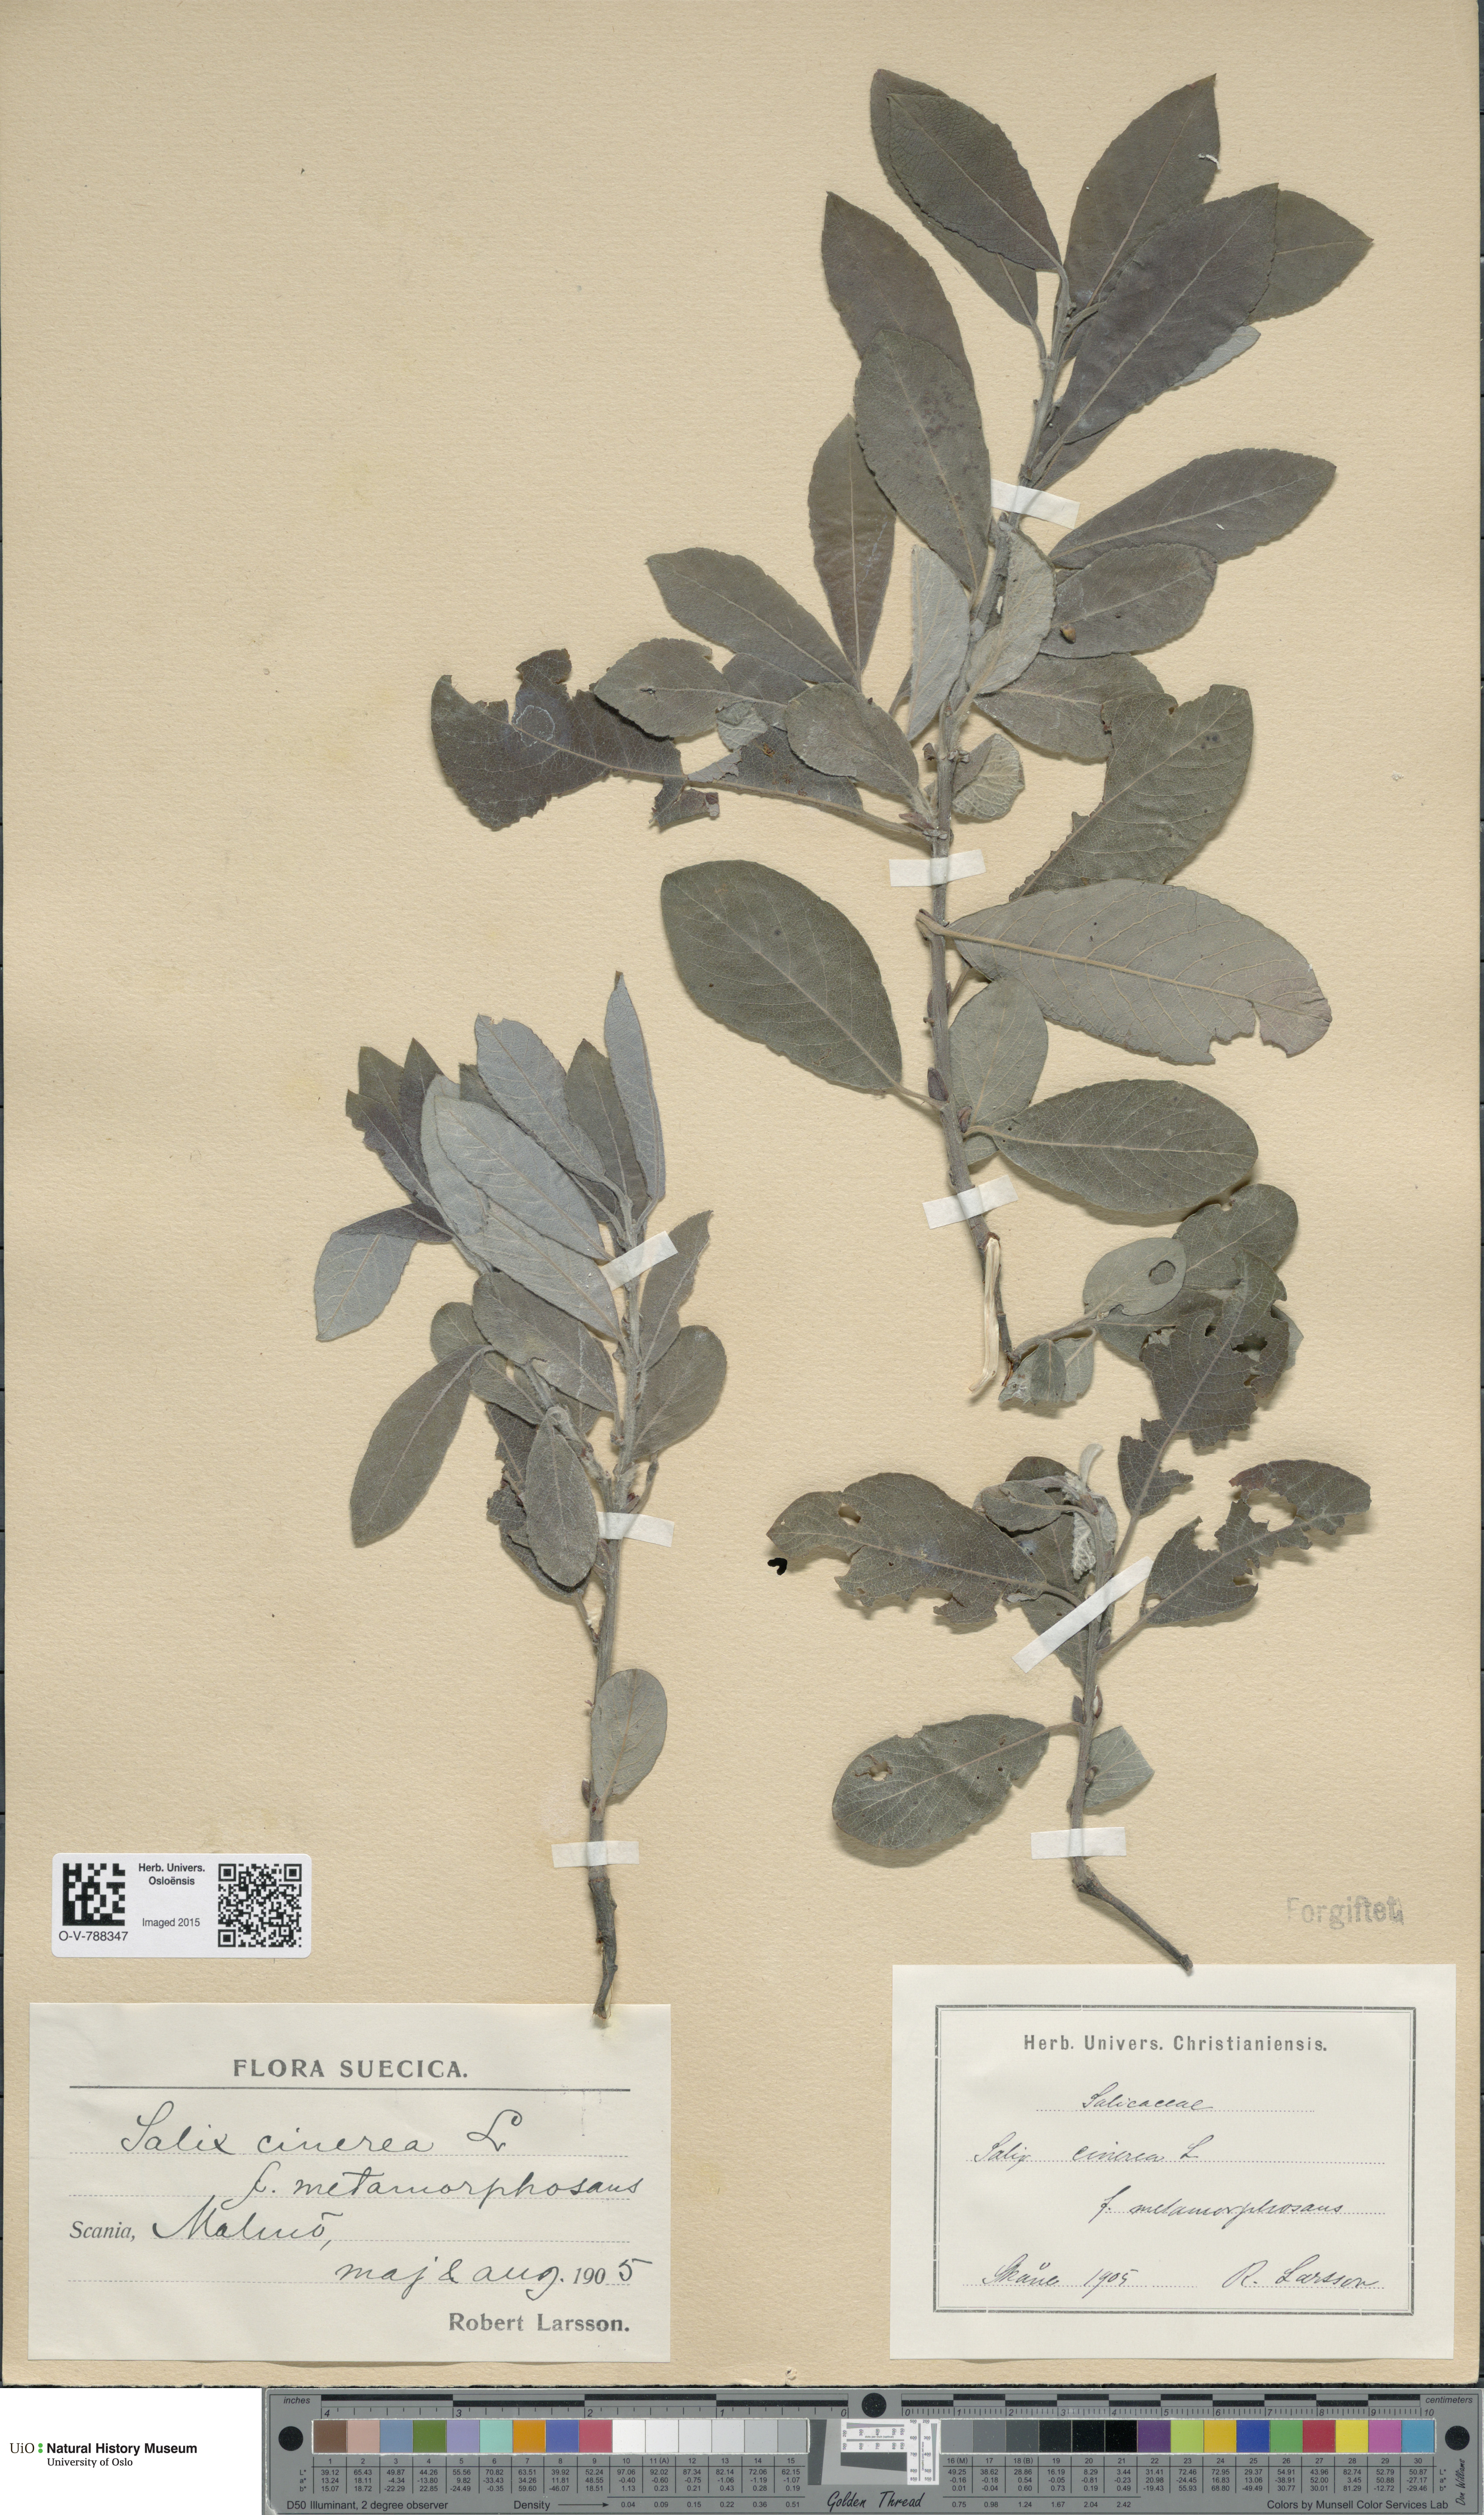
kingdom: Plantae
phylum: Tracheophyta
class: Magnoliopsida
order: Malpighiales
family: Salicaceae
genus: Salix
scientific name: Salix cinerea
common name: Common sallow
